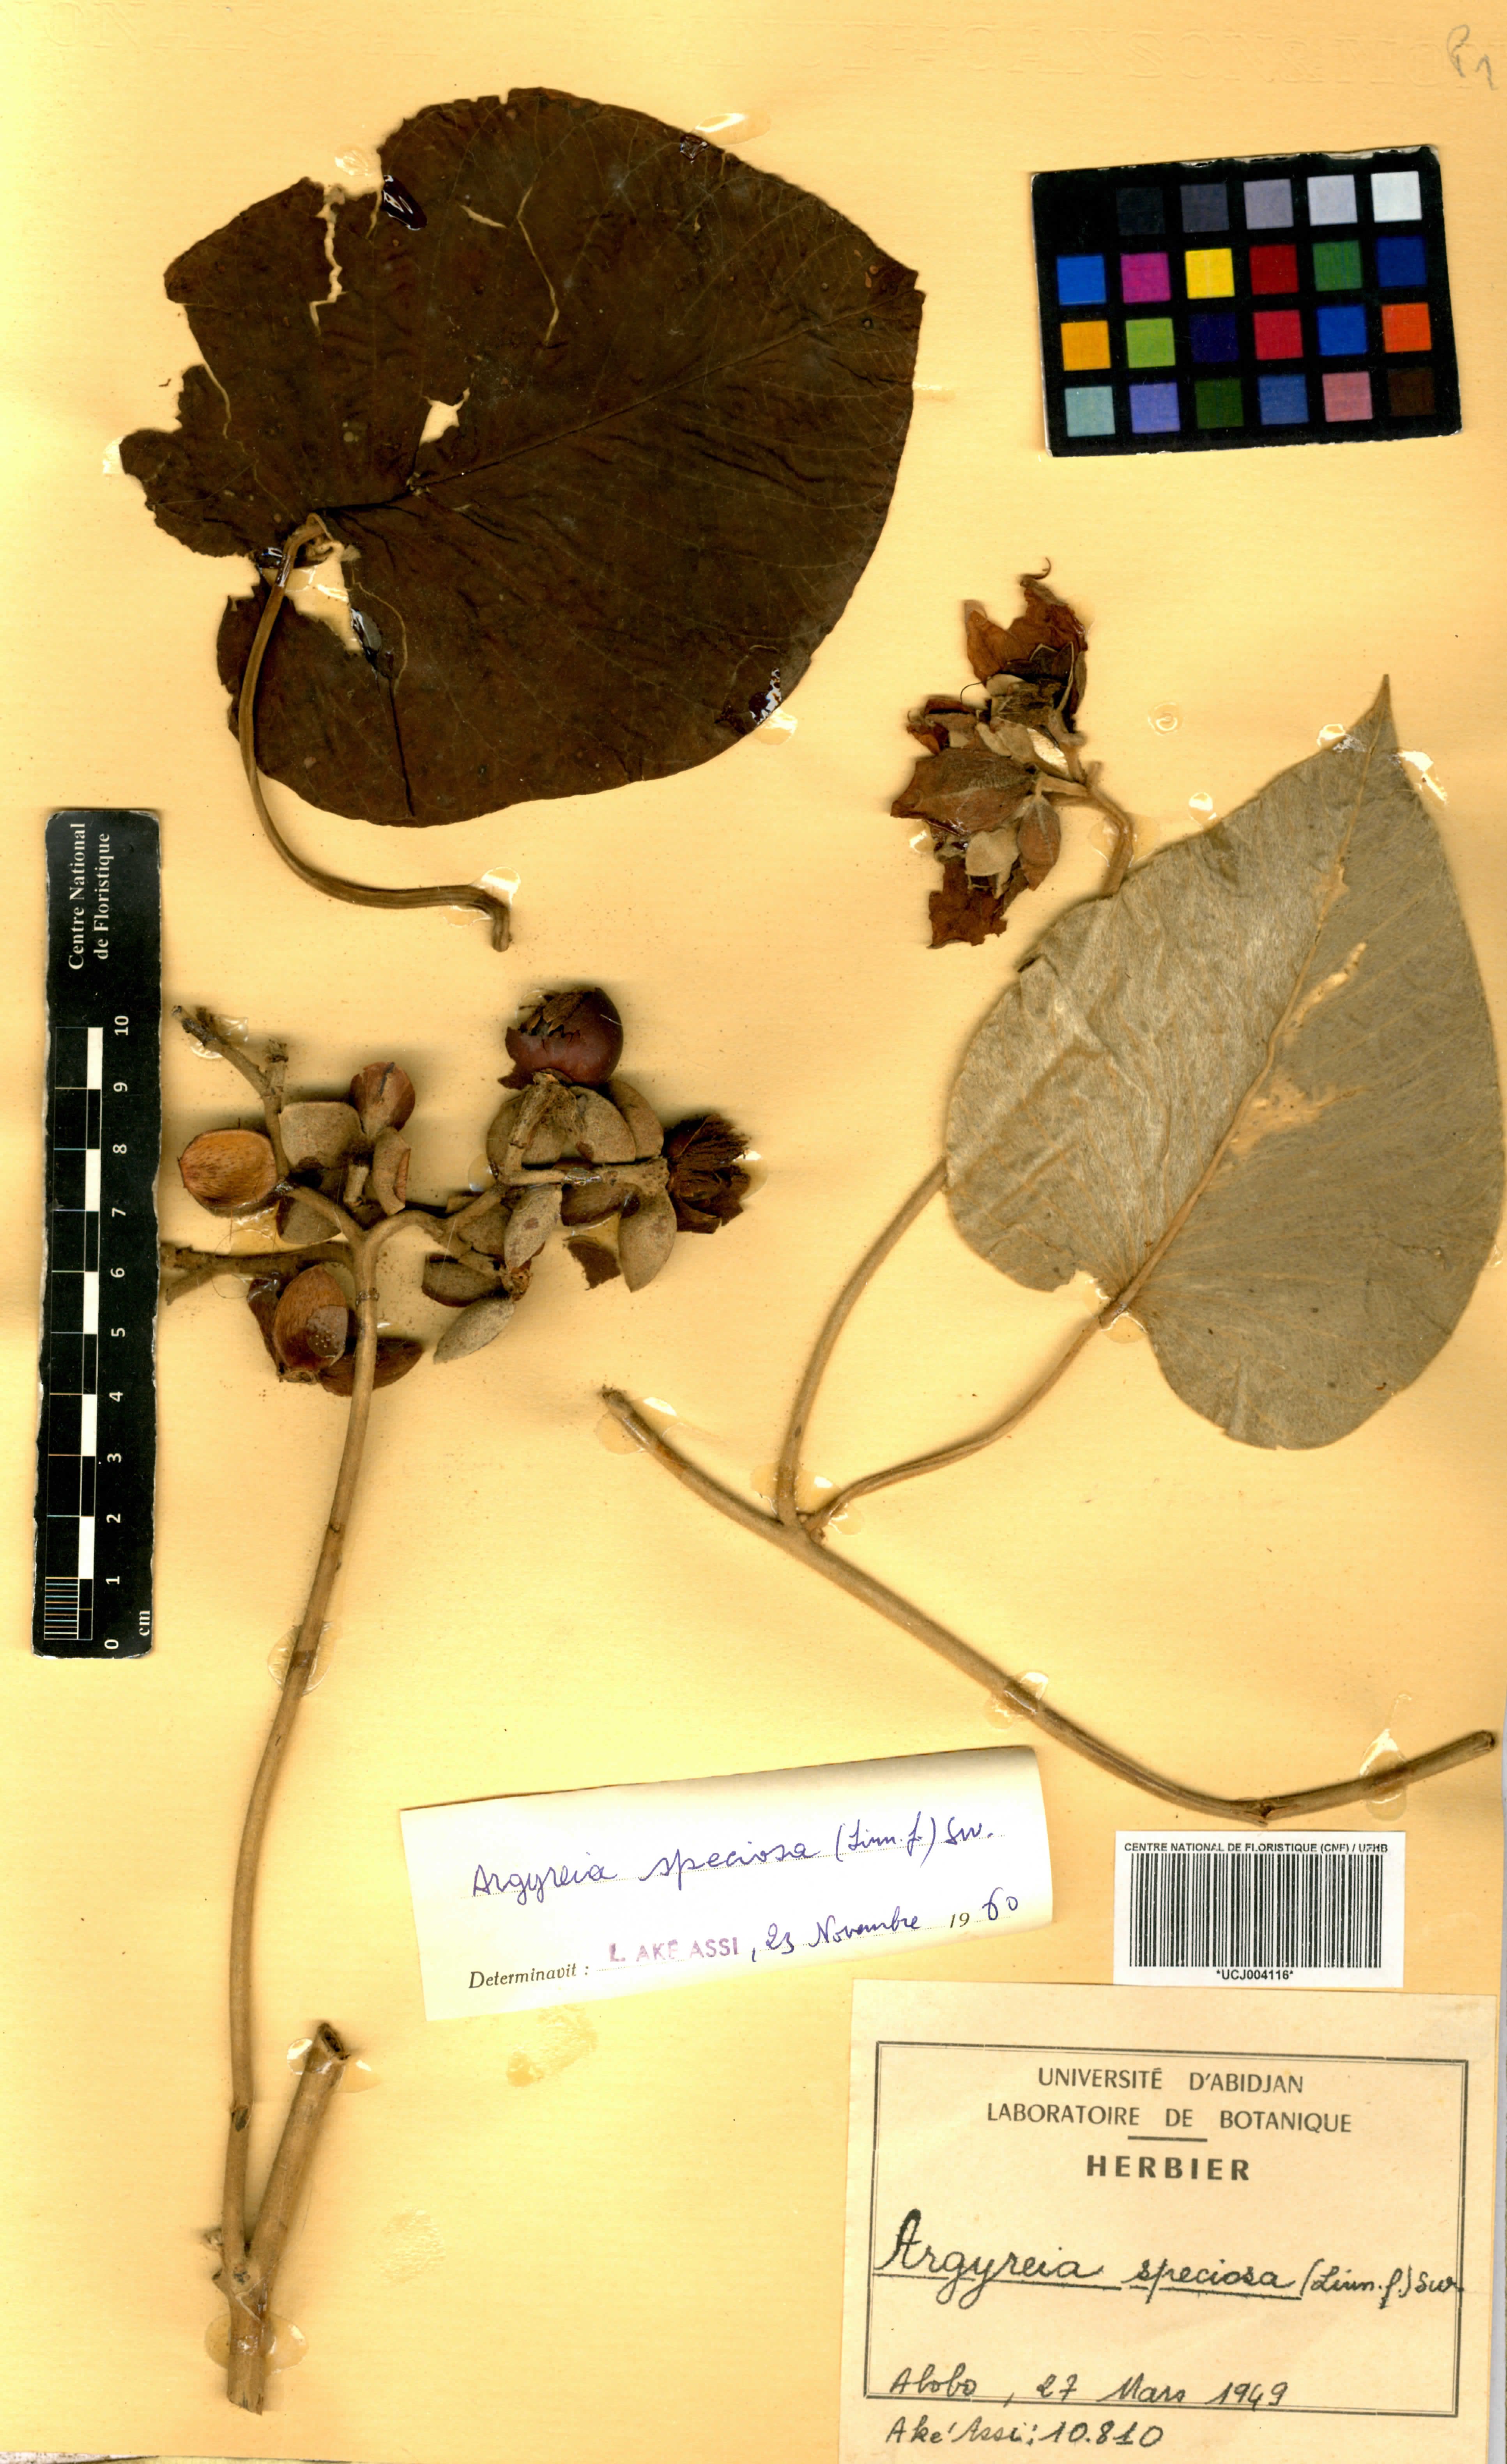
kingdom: Plantae
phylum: Tracheophyta
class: Magnoliopsida
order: Solanales
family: Convolvulaceae
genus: Argyreia
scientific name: Argyreia nervosa
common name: Elephant creeper
